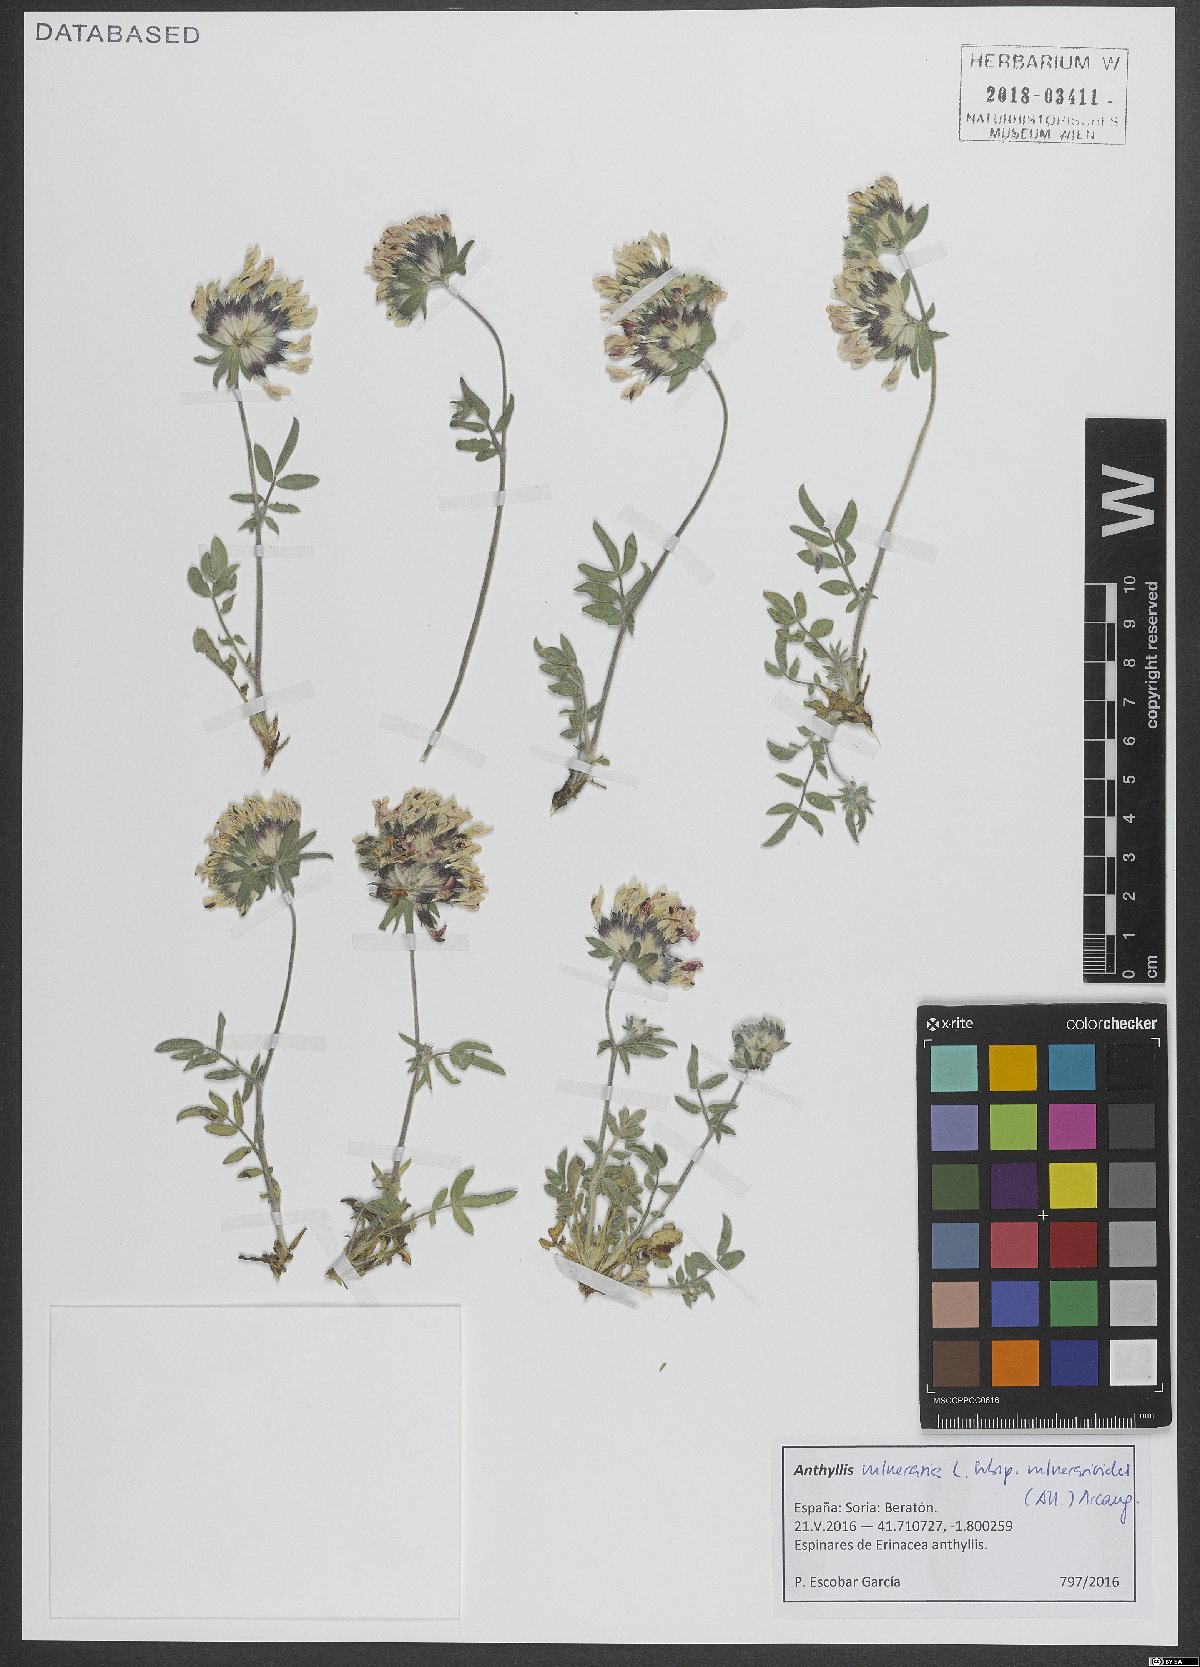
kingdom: Plantae
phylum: Tracheophyta
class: Magnoliopsida
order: Fabales
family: Fabaceae
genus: Anthyllis
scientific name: Anthyllis vulneraria
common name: Kidney vetch
